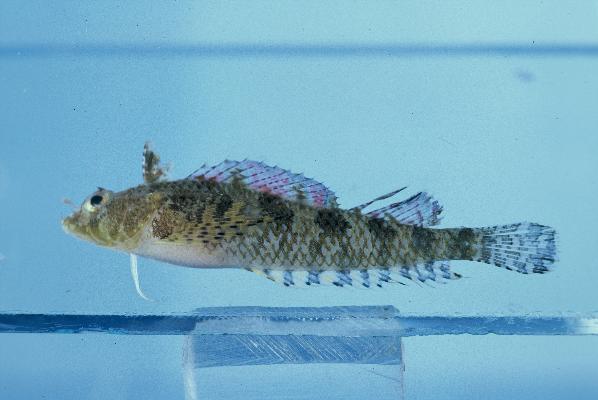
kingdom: Animalia
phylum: Chordata
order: Perciformes
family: Tripterygiidae
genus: Norfolkia
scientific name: Norfolkia brachylepis
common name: Tropical scaly-headed triplefin
